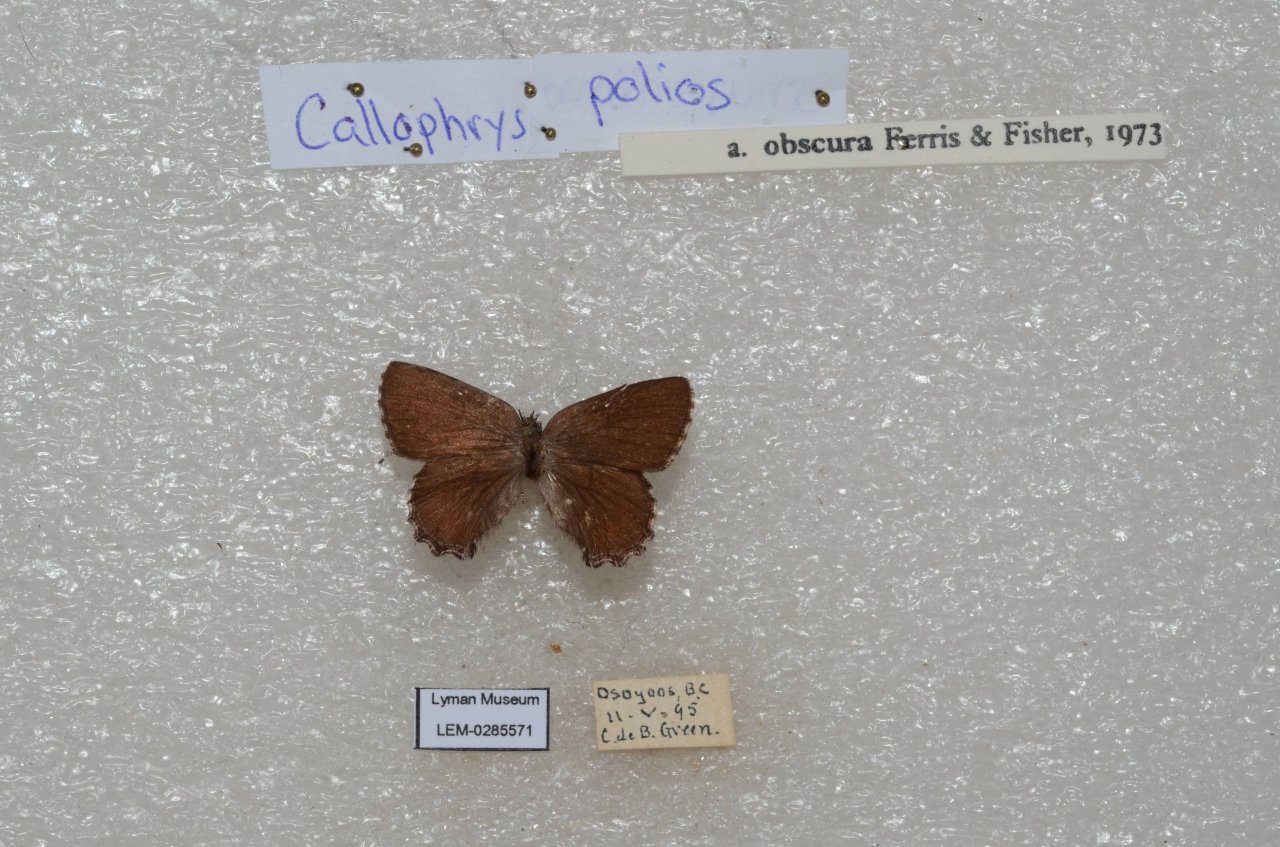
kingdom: Animalia
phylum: Arthropoda
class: Insecta
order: Lepidoptera
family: Lycaenidae
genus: Callophrys
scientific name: Callophrys polios
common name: Hoary Elfin
